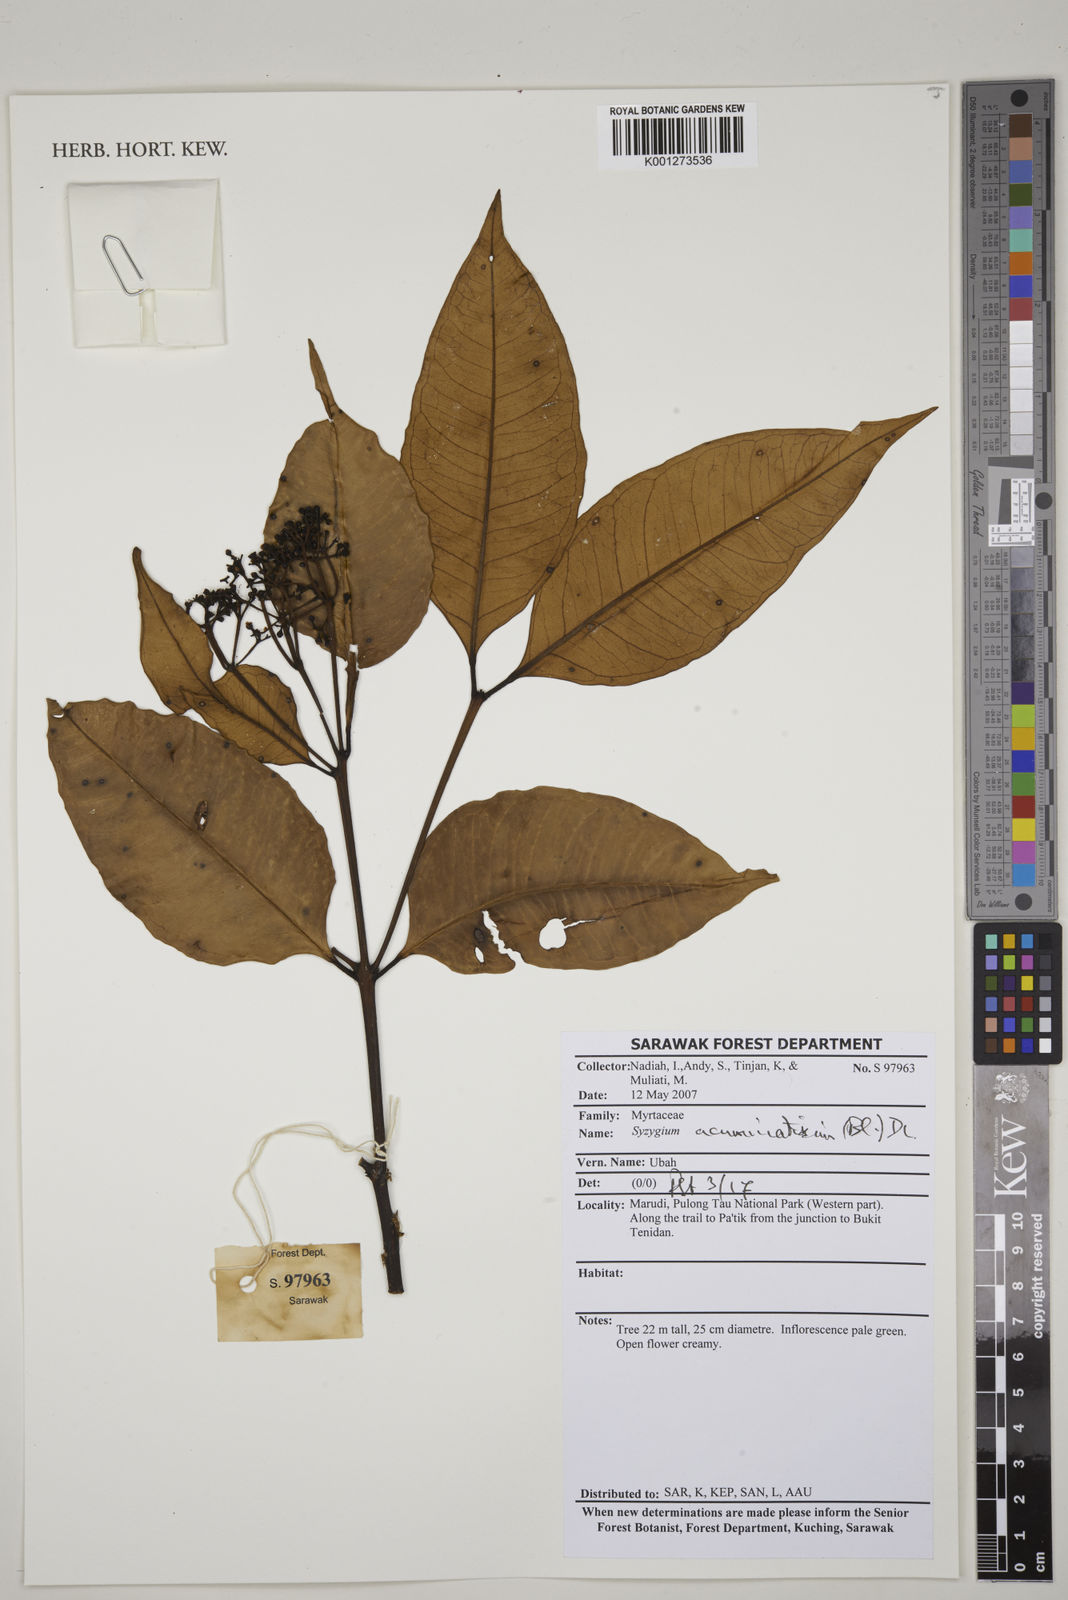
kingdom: Plantae
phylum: Tracheophyta
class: Magnoliopsida
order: Myrtales
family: Myrtaceae
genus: Syzygium
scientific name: Syzygium acuminatissimum
